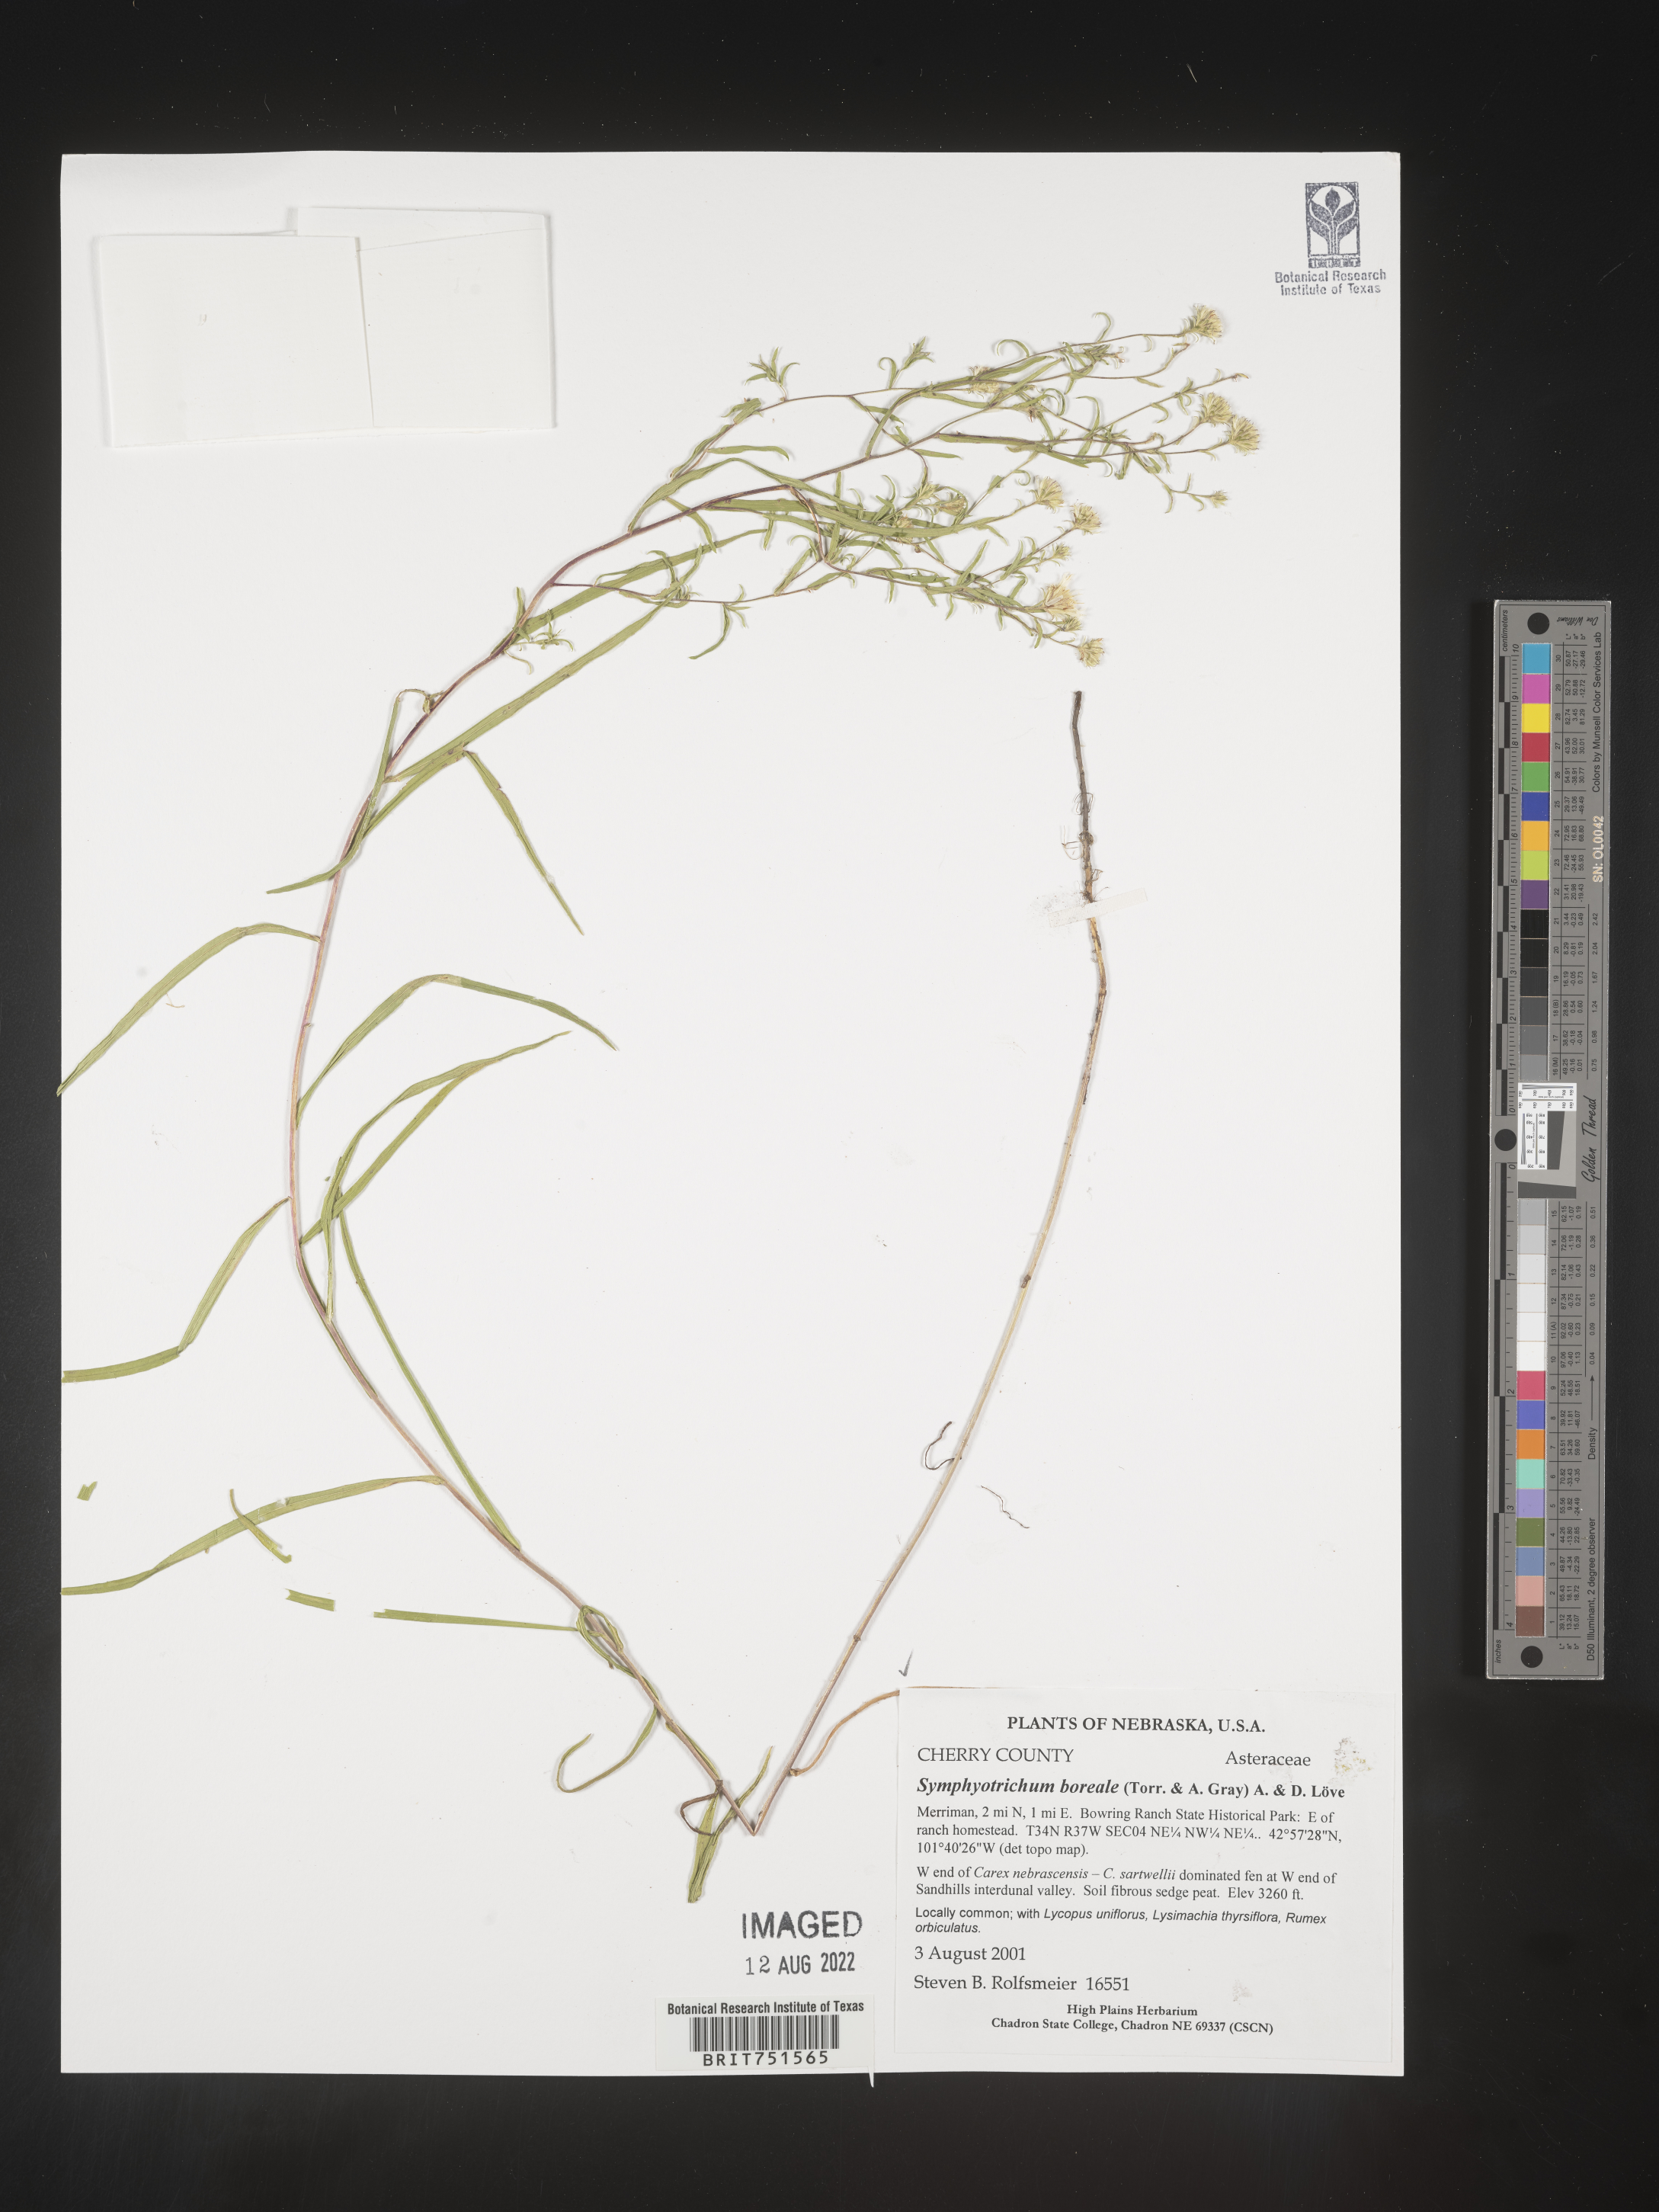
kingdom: Plantae
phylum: Tracheophyta
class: Magnoliopsida
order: Asterales
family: Asteraceae
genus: Symphyotrichum
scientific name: Symphyotrichum boreale
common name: Northern bog aster
